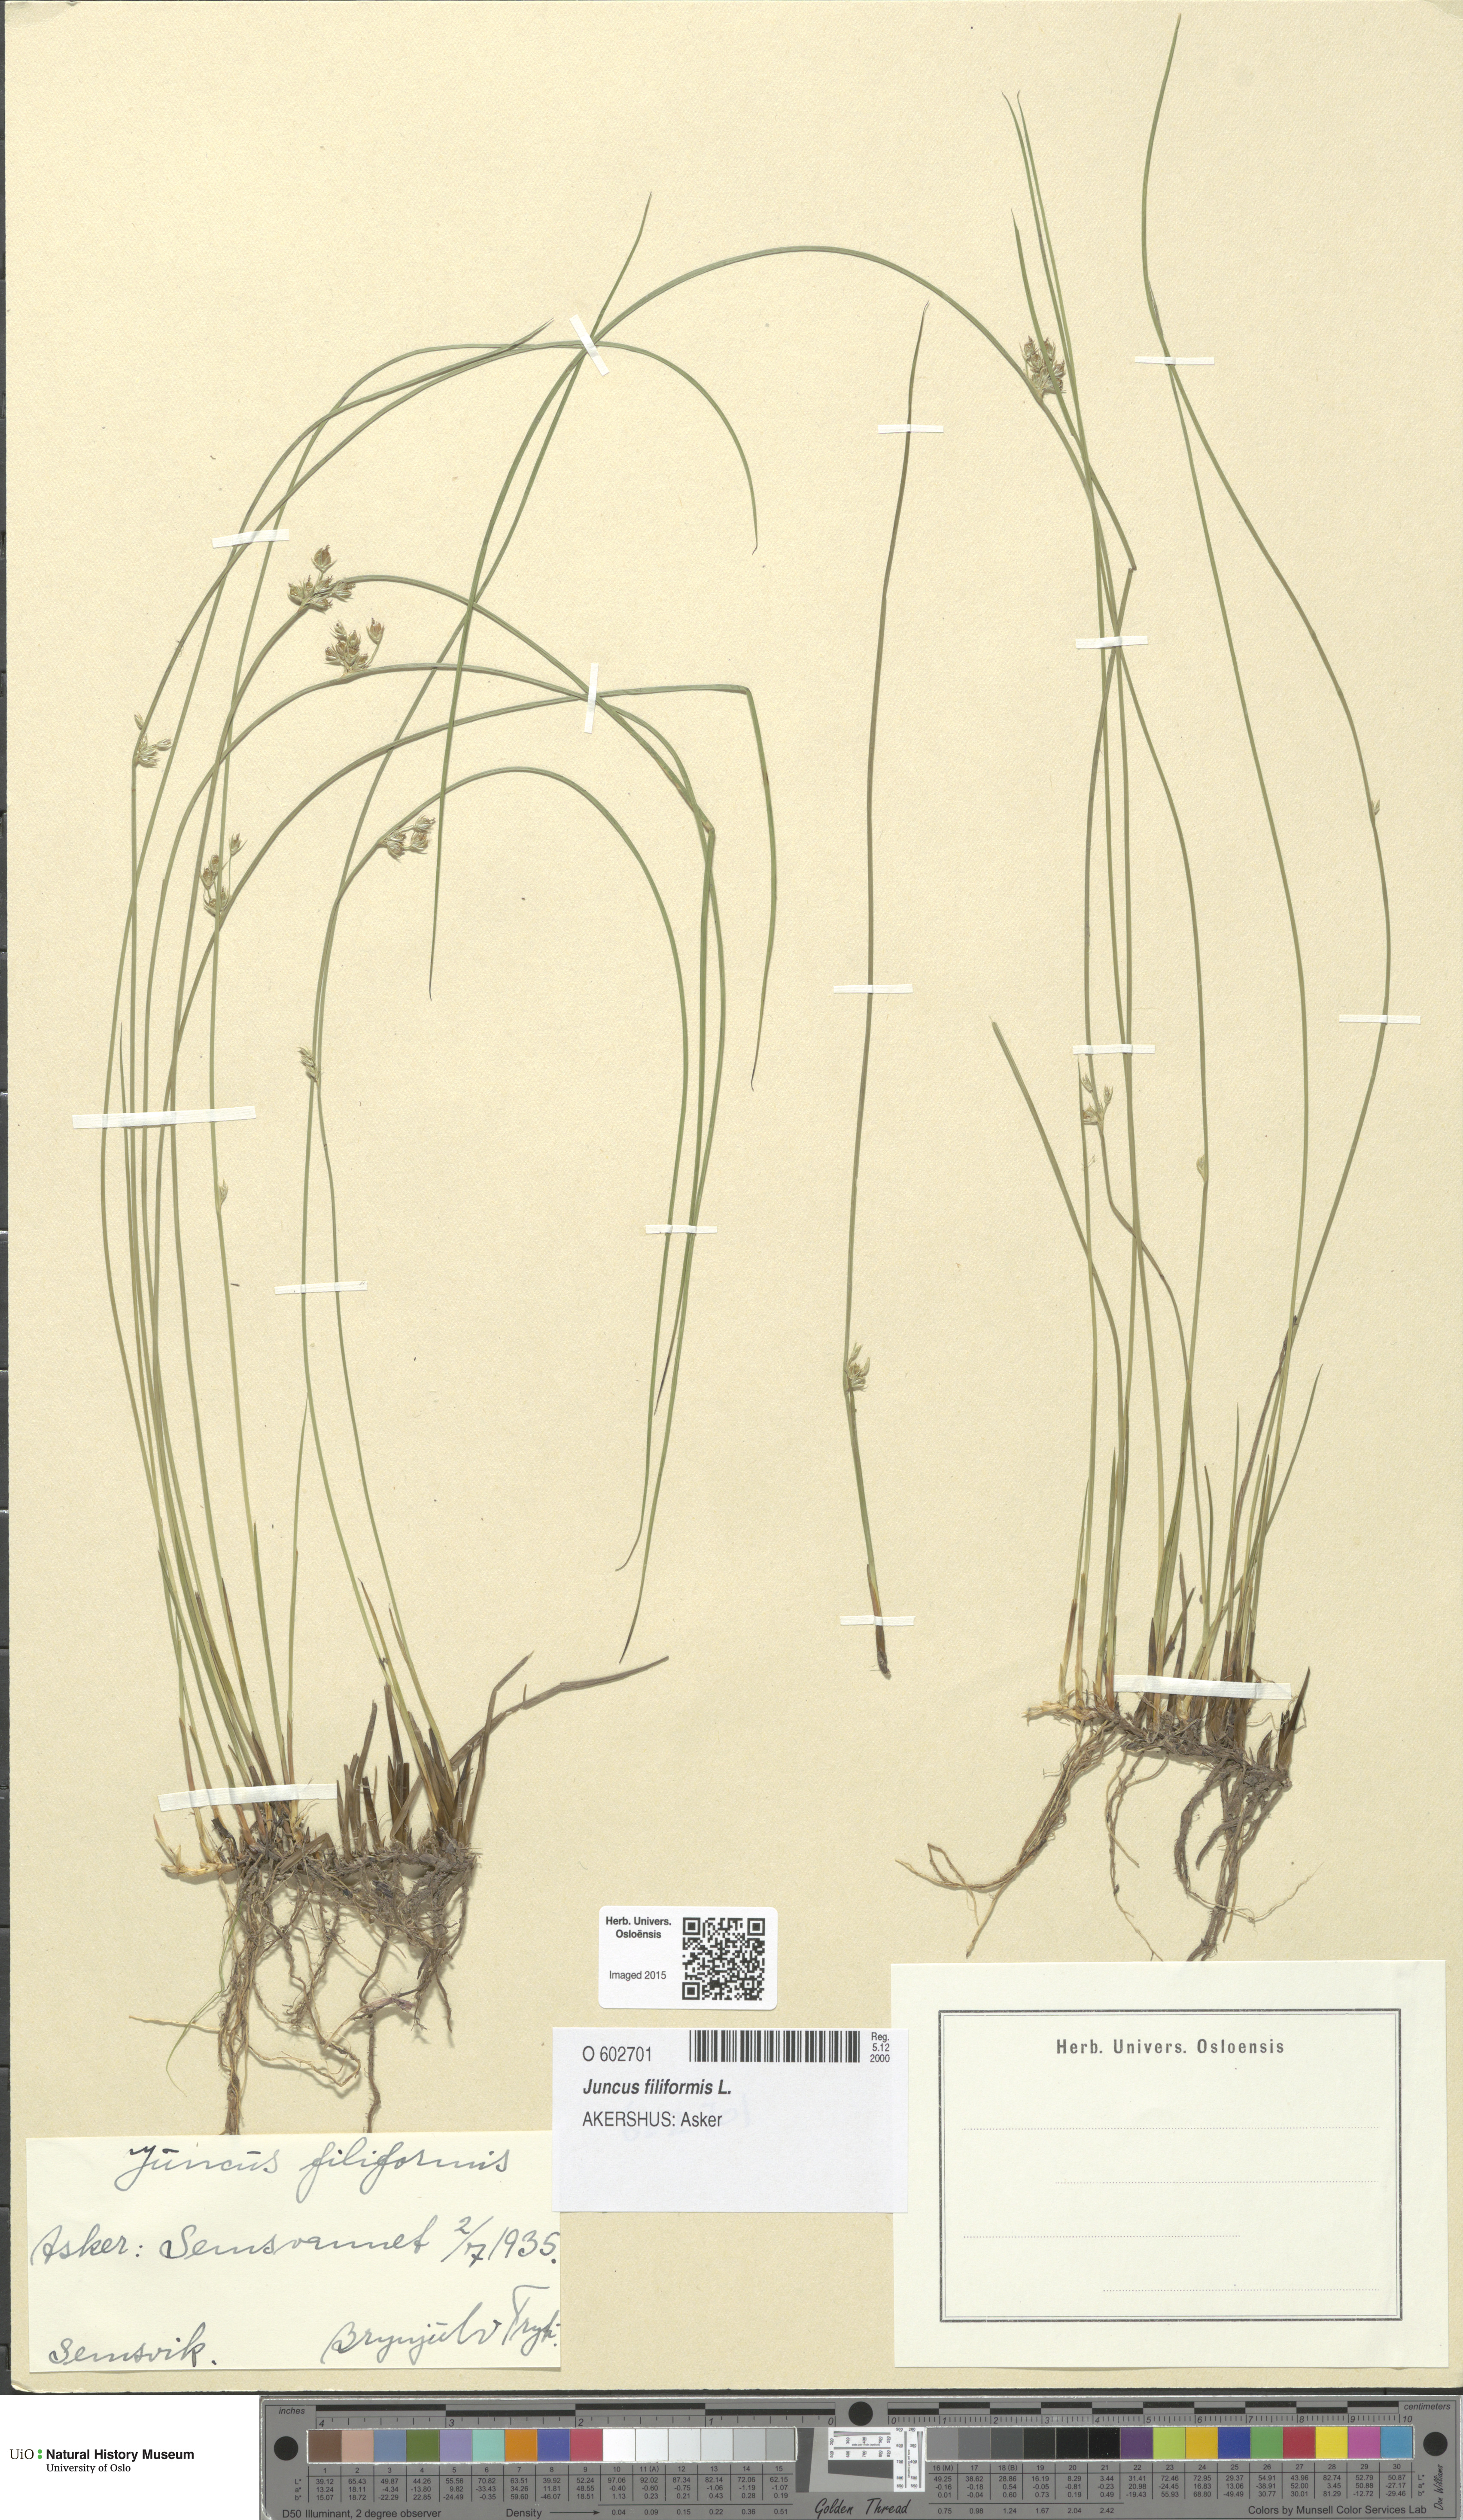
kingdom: Plantae
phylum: Tracheophyta
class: Liliopsida
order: Poales
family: Juncaceae
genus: Juncus
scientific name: Juncus filiformis
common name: Thread rush
